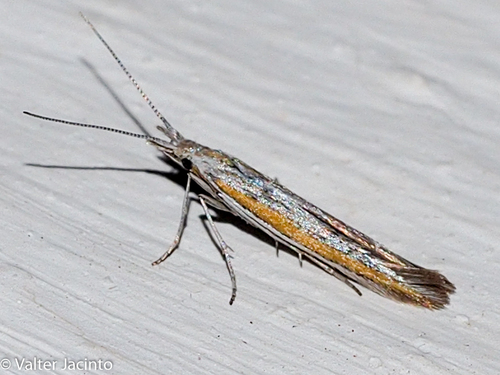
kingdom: Animalia
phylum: Arthropoda
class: Insecta
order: Lepidoptera
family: Coleophoridae
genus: Coleophora
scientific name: Coleophora albicosta
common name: Gorse case-bearer
